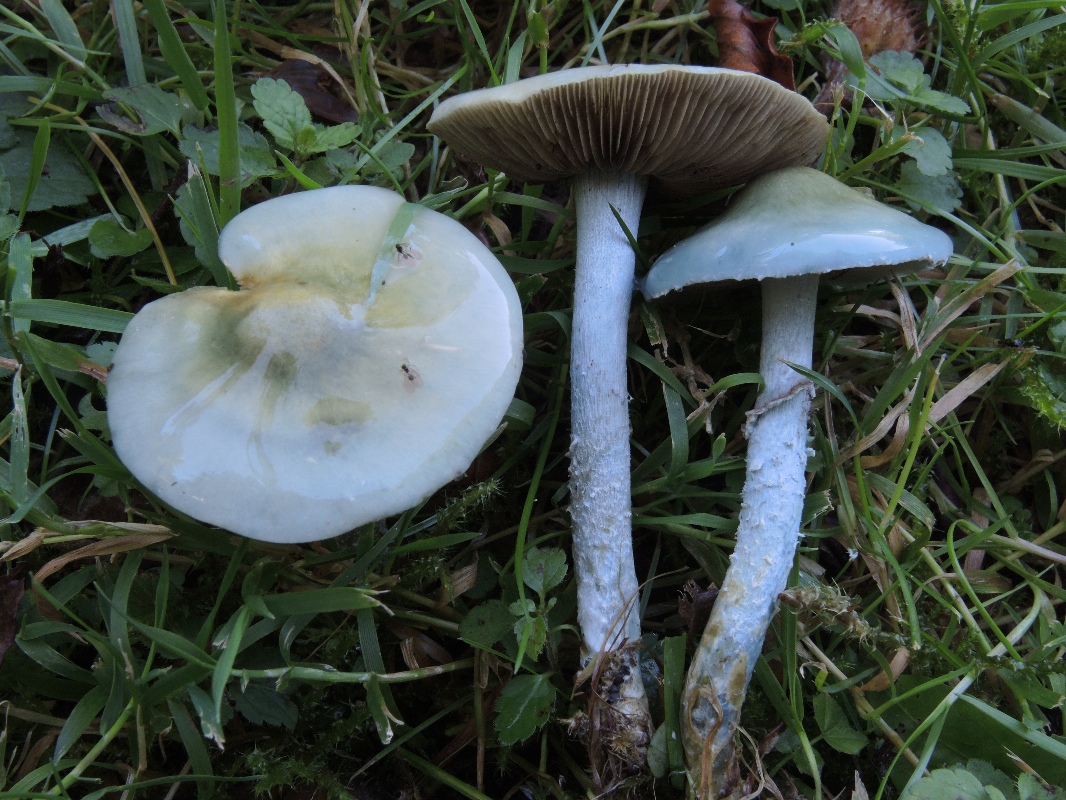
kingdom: Fungi
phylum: Basidiomycota
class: Agaricomycetes
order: Agaricales
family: Strophariaceae
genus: Stropharia
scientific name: Stropharia cyanea
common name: blågrøn bredblad
